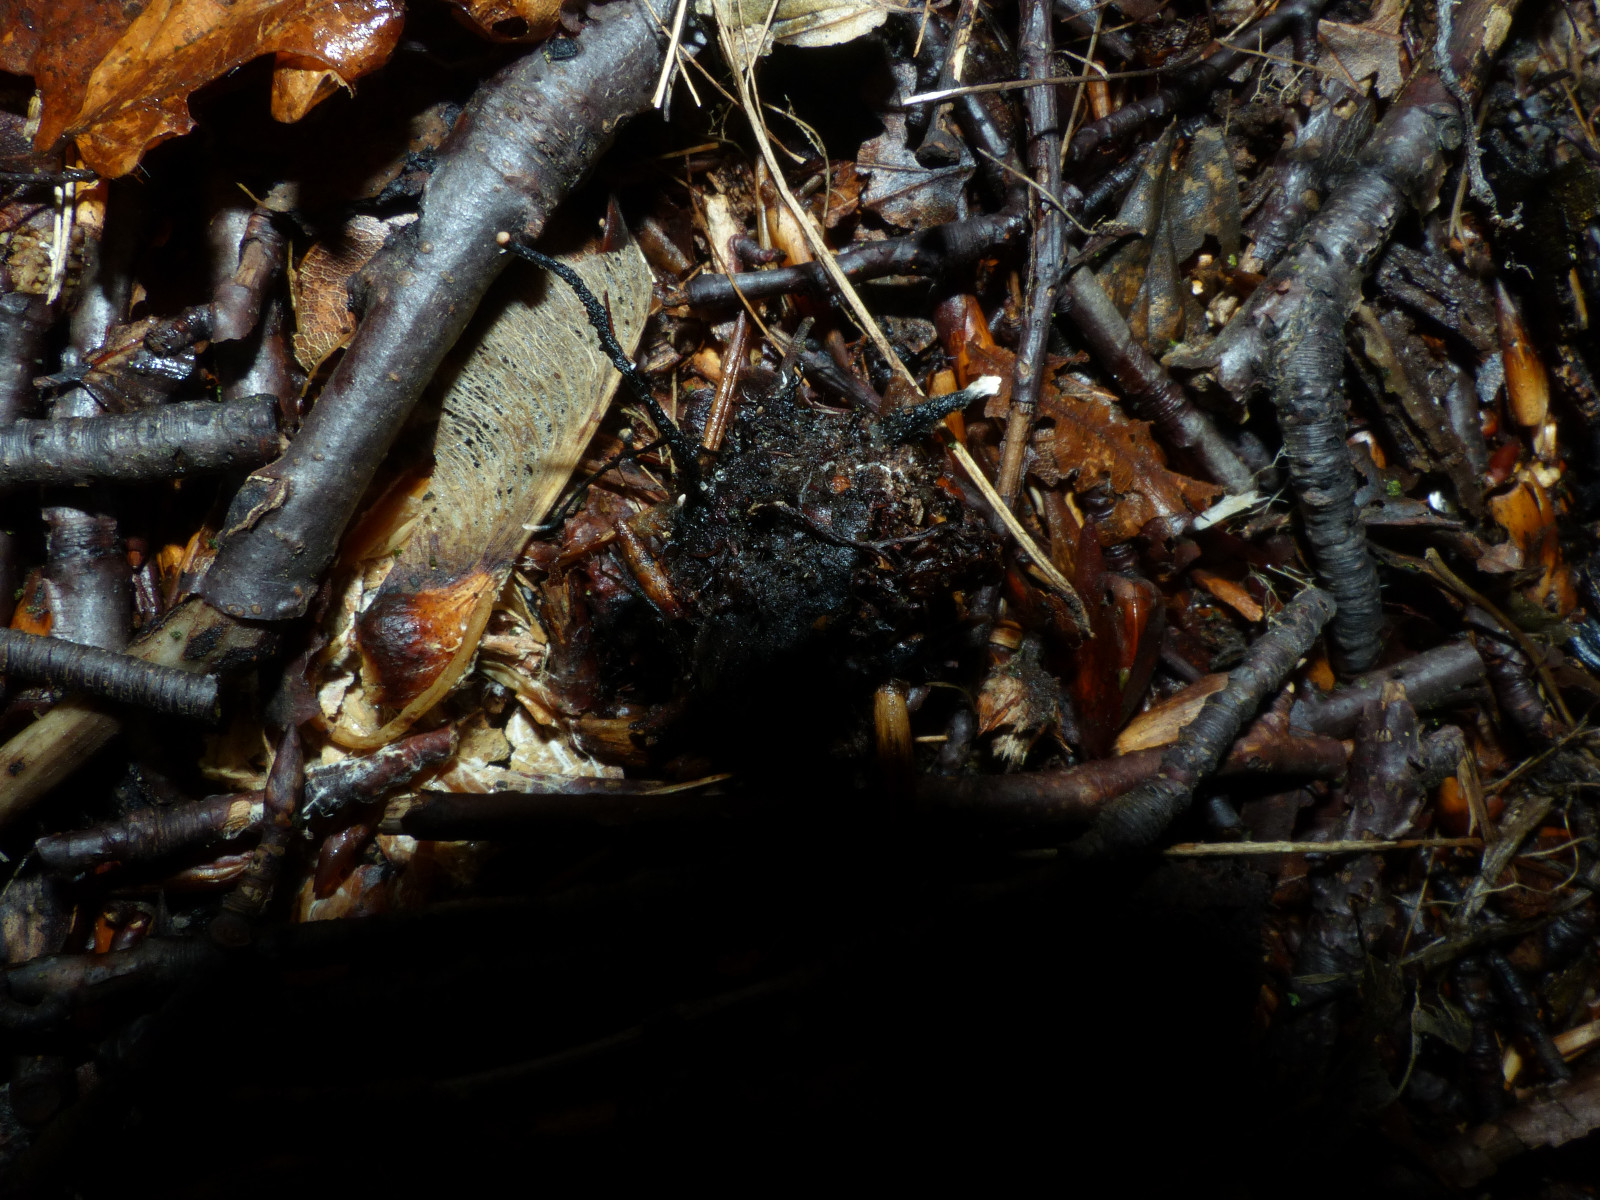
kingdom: Fungi
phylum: Ascomycota
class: Sordariomycetes
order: Xylariales
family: Xylariaceae
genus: Xylaria
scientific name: Xylaria carpophila
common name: bogskål-stødsvamp
